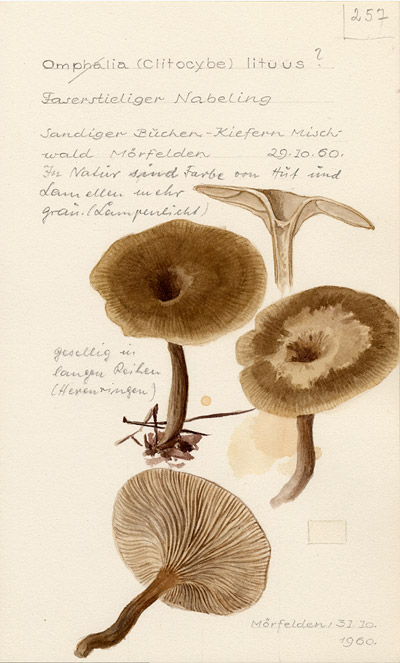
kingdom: Fungi
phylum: Basidiomycota
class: Agaricomycetes
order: Agaricales
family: Tricholomataceae
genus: Clitocybe
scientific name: Clitocybe lituus
